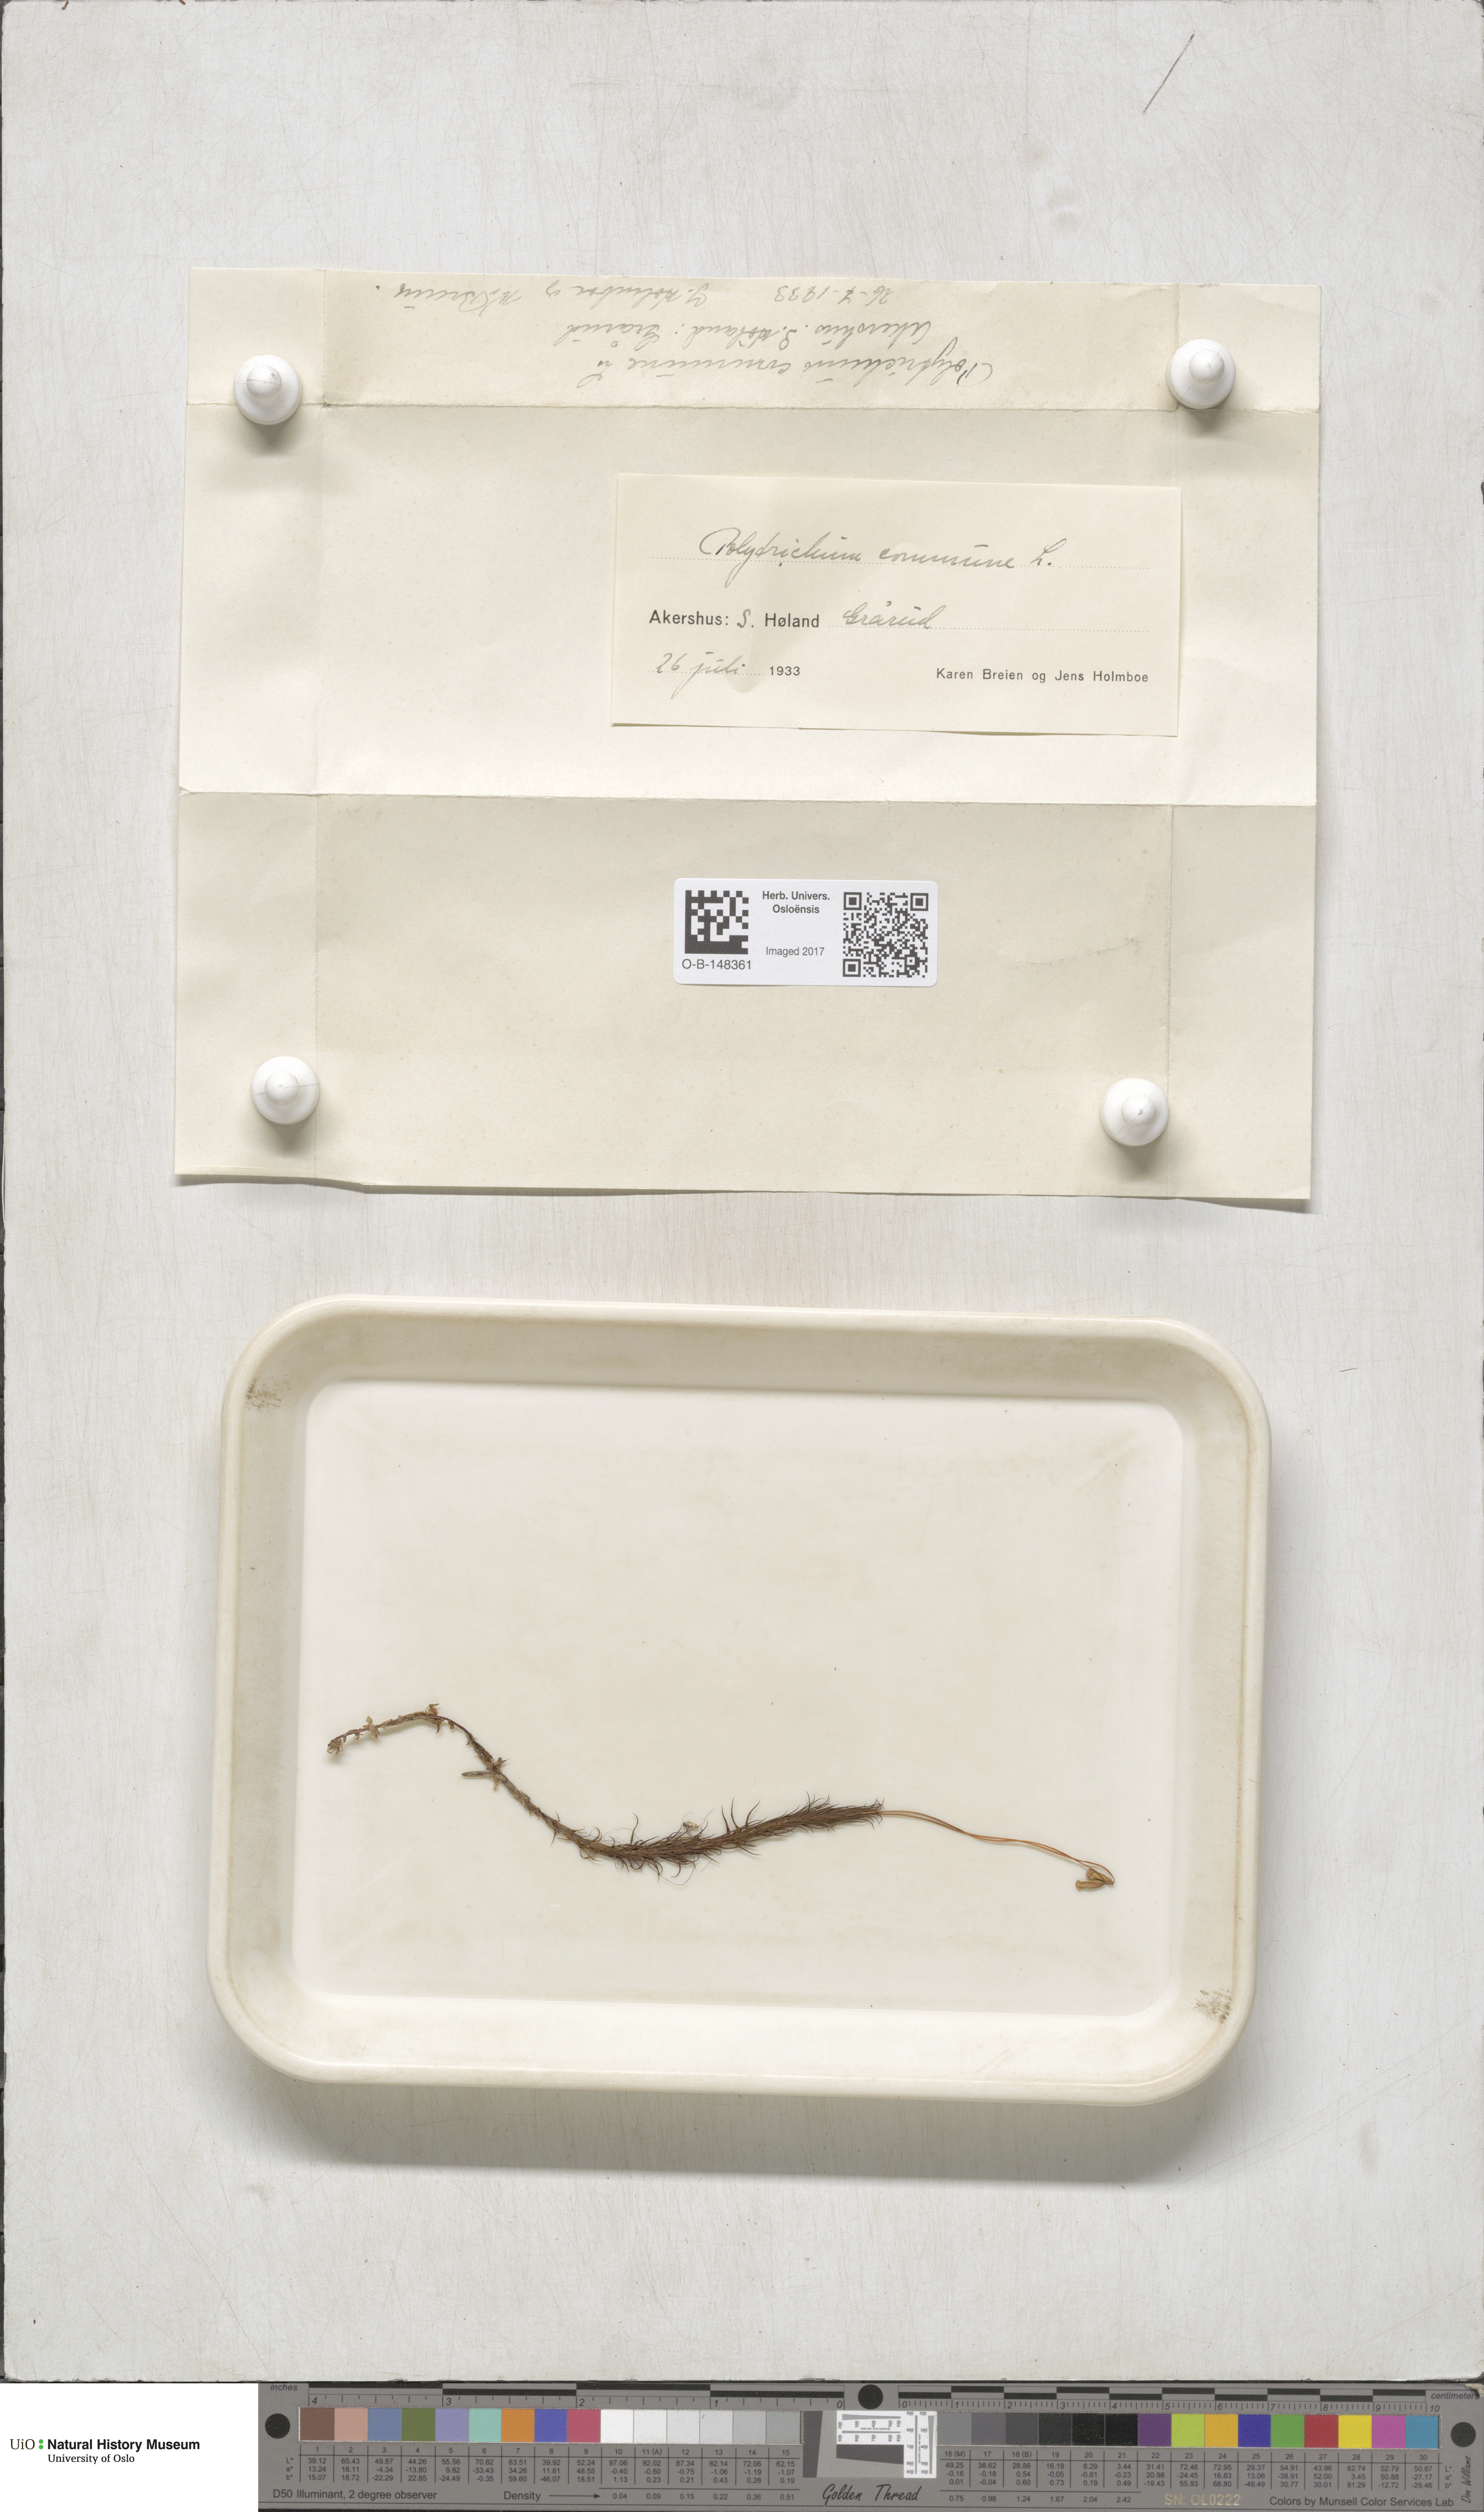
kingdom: Plantae
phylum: Bryophyta
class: Polytrichopsida
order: Polytrichales
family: Polytrichaceae
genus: Polytrichum
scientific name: Polytrichum commune
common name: Common haircap
